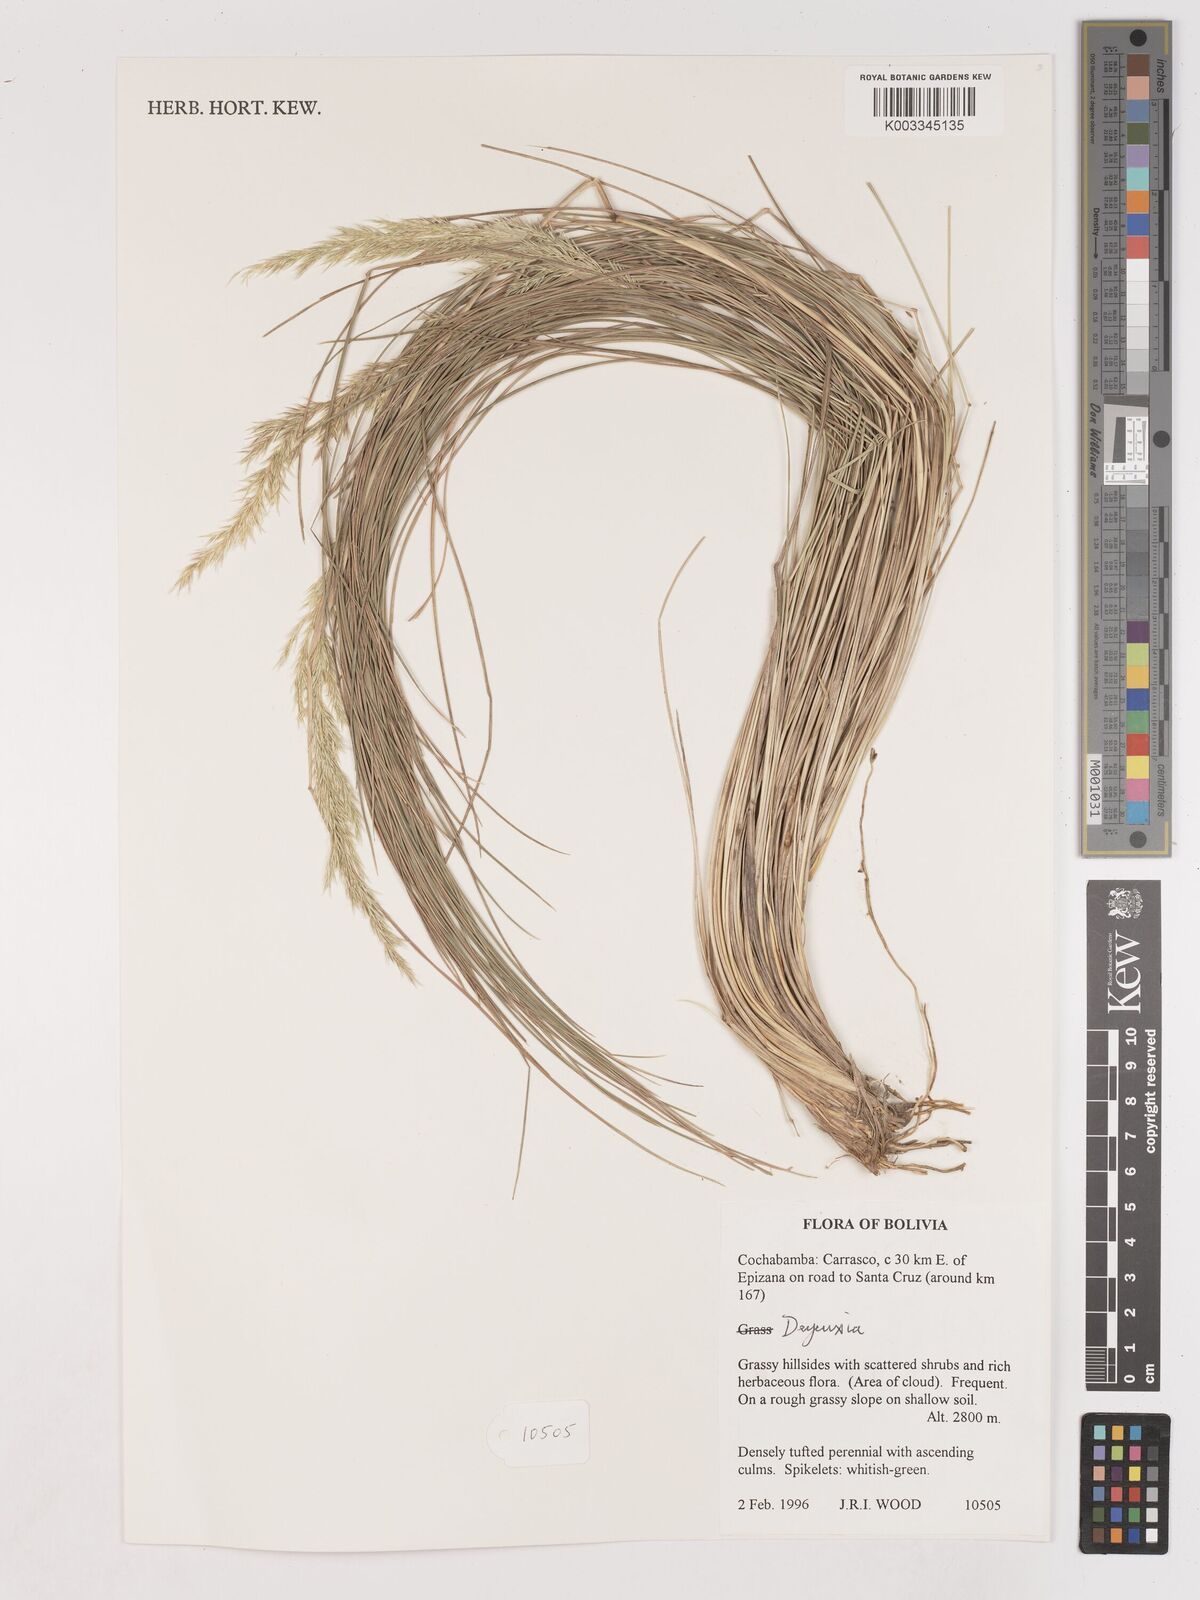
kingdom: Plantae
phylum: Tracheophyta
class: Liliopsida
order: Poales
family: Poaceae
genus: Calamagrostis
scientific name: Calamagrostis
